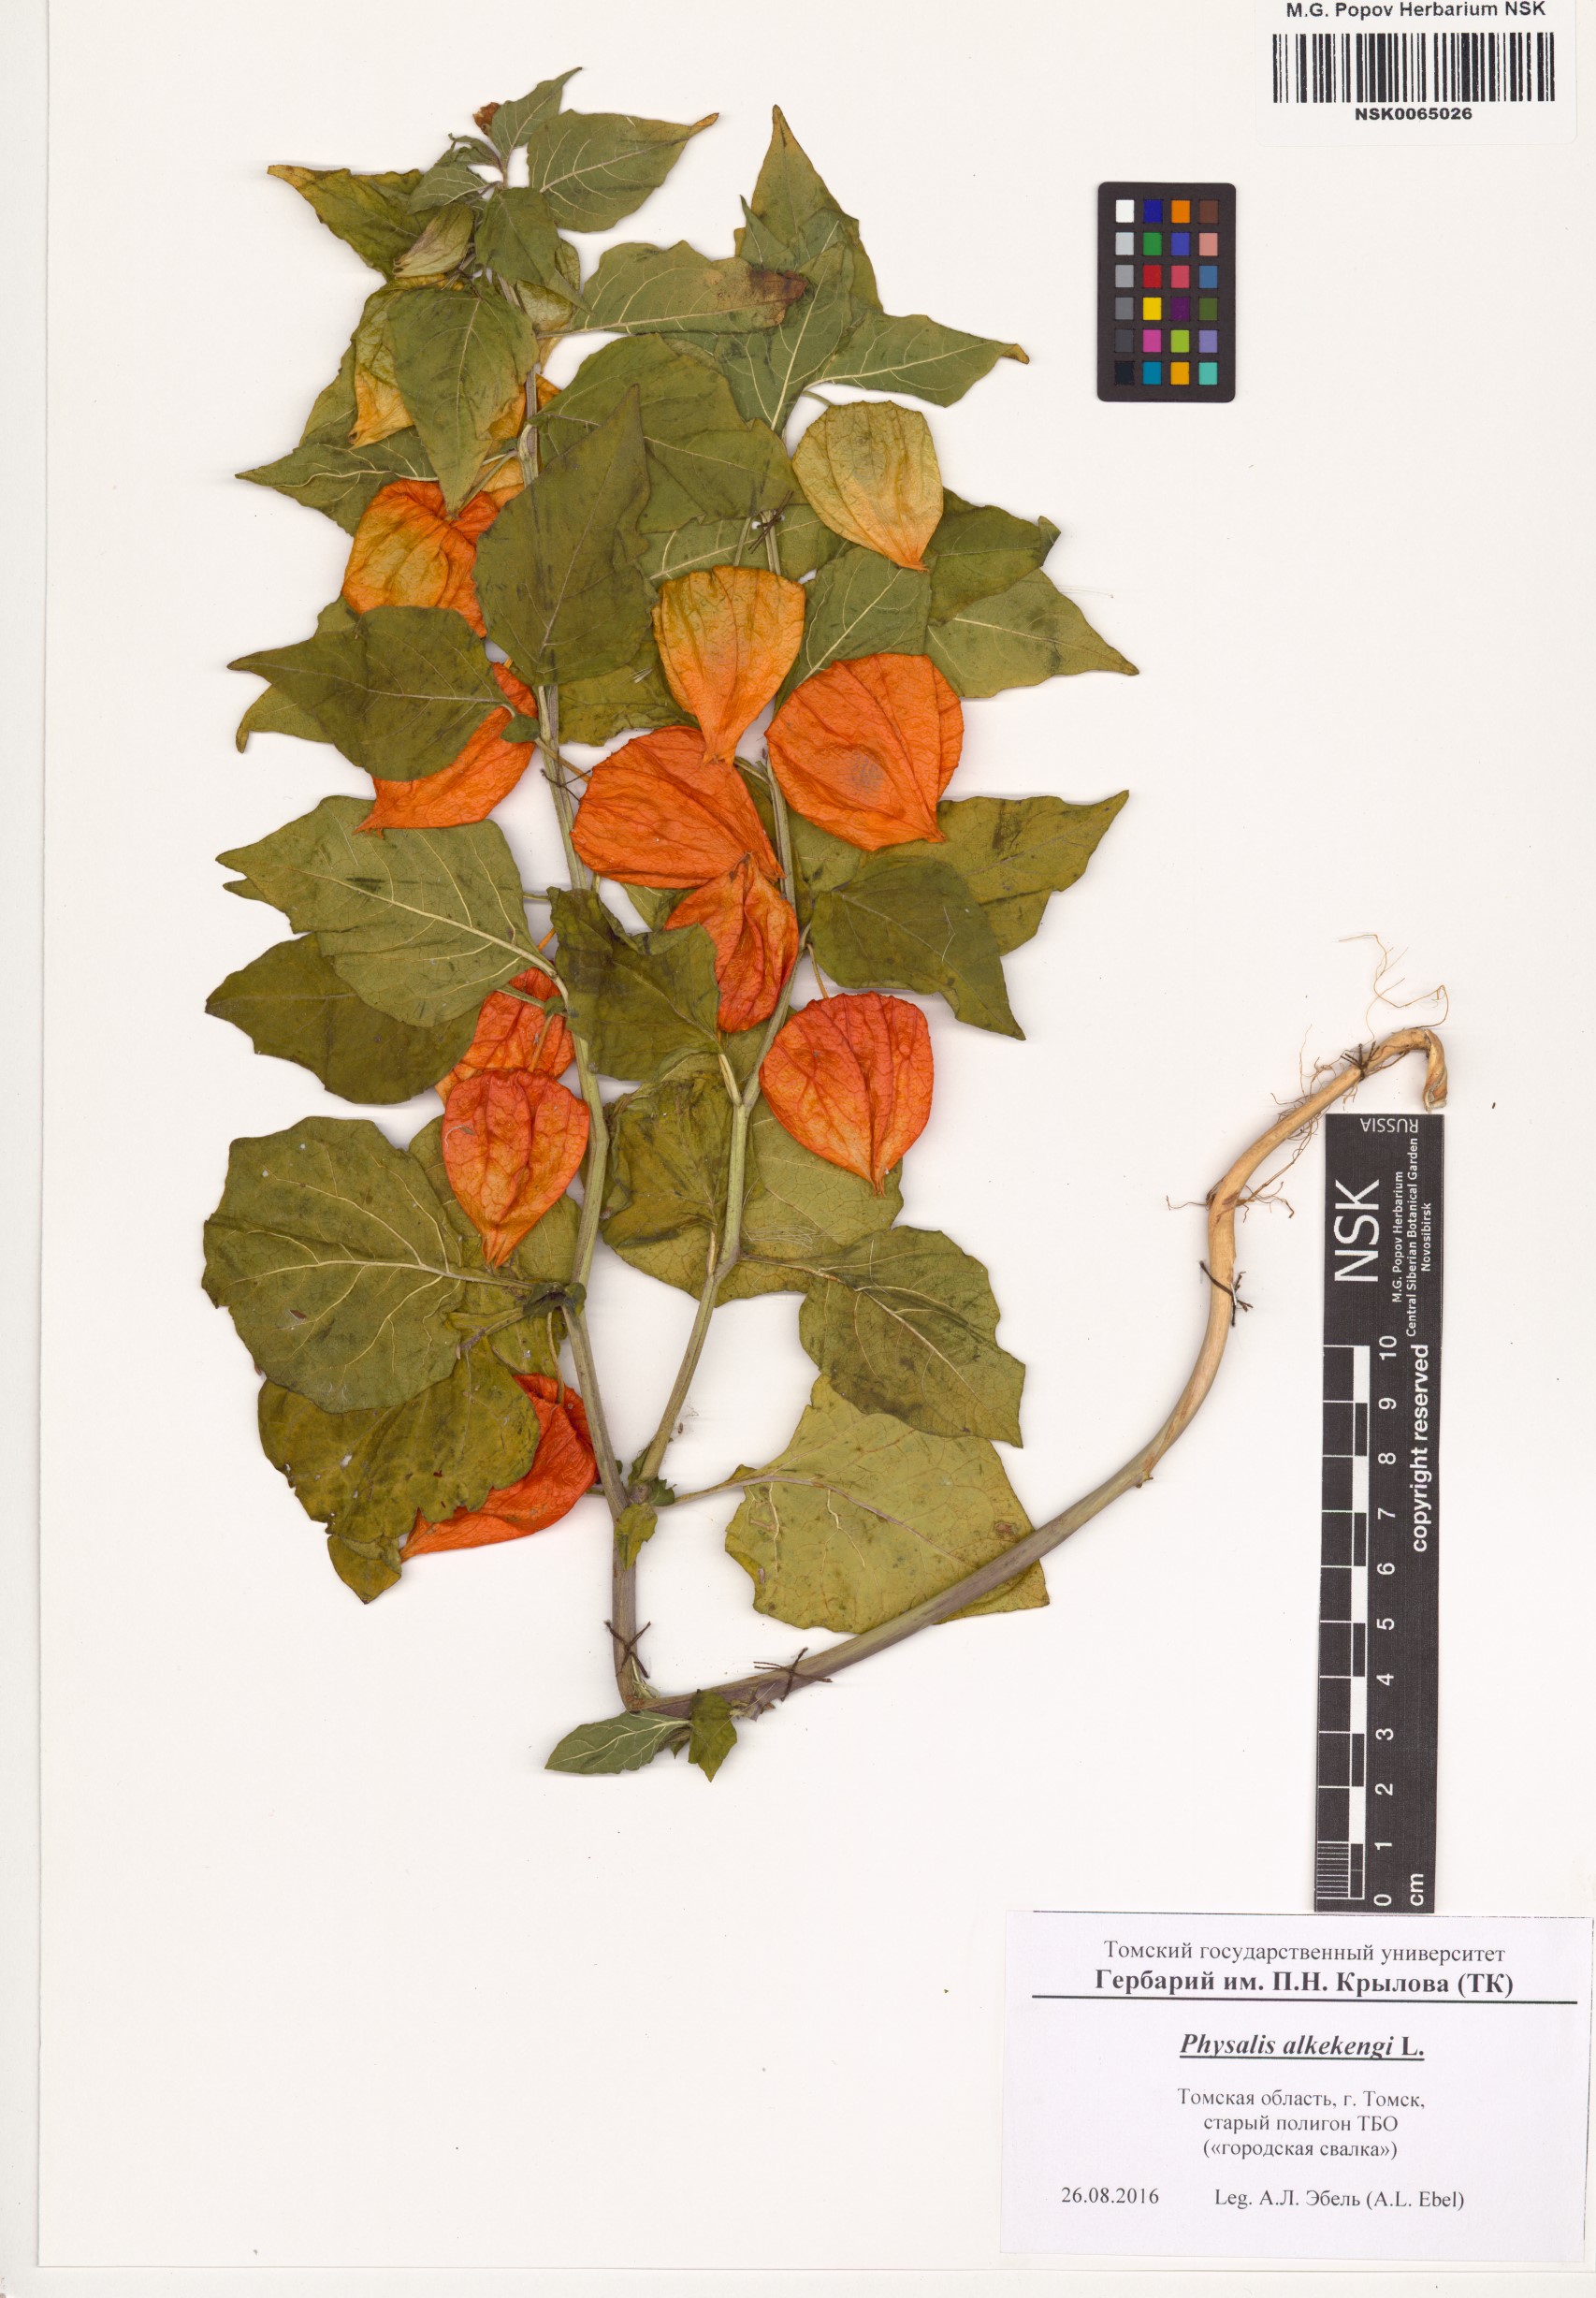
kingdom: Plantae
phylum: Tracheophyta
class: Magnoliopsida
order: Solanales
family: Solanaceae
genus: Alkekengi
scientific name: Alkekengi officinarum
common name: Japanese-lantern
